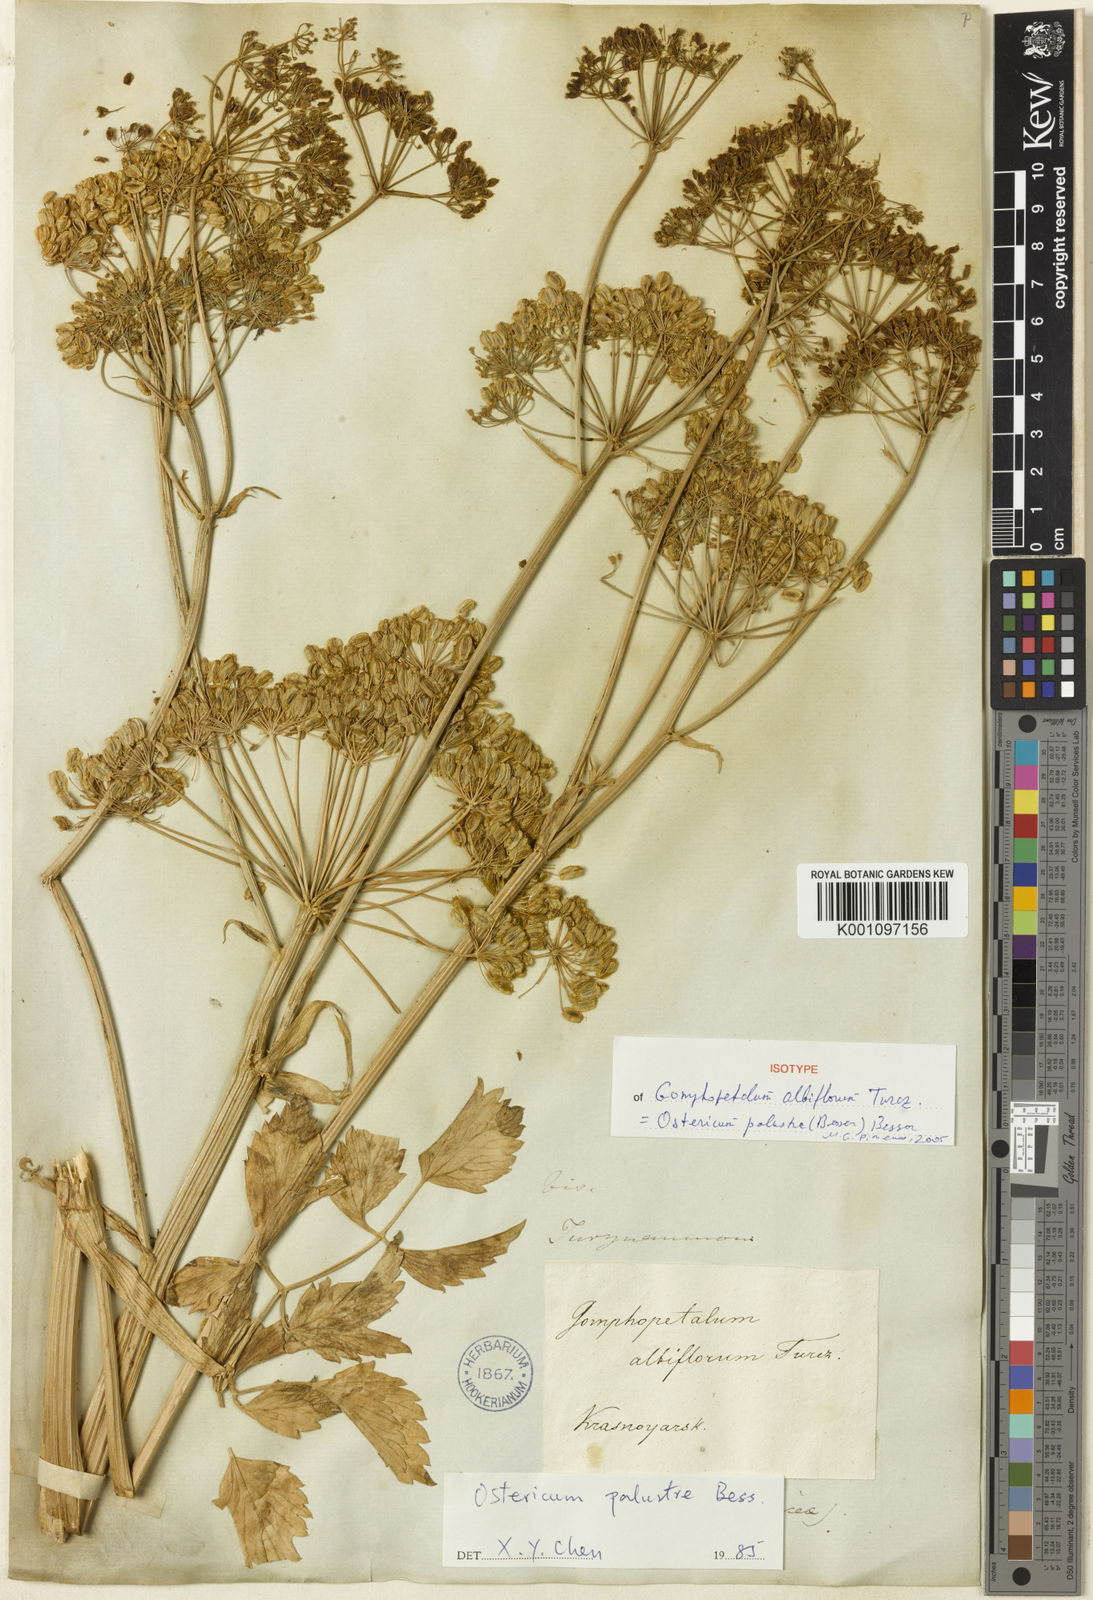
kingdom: Plantae
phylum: Tracheophyta
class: Magnoliopsida
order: Apiales
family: Apiaceae
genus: Ostericum
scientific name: Ostericum viridiflorum
